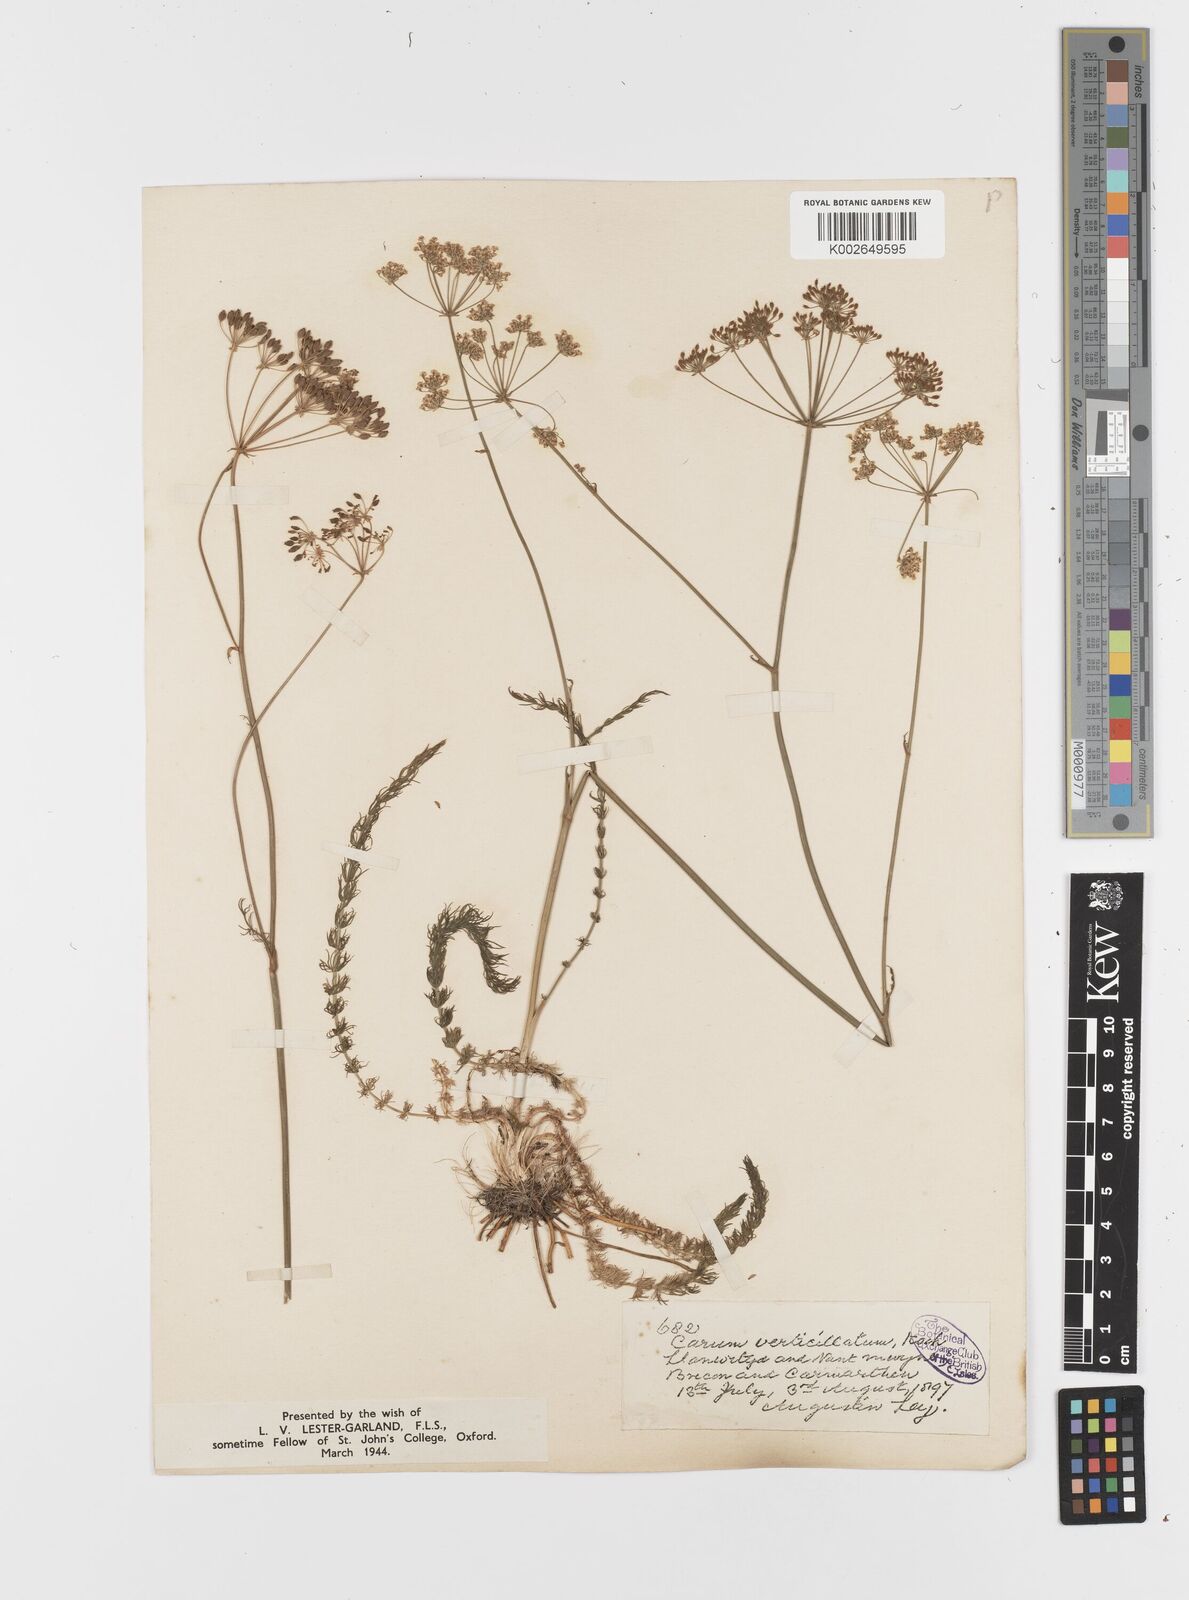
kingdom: Plantae
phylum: Tracheophyta
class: Magnoliopsida
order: Apiales
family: Apiaceae
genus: Trocdaris
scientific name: Trocdaris verticillatum
